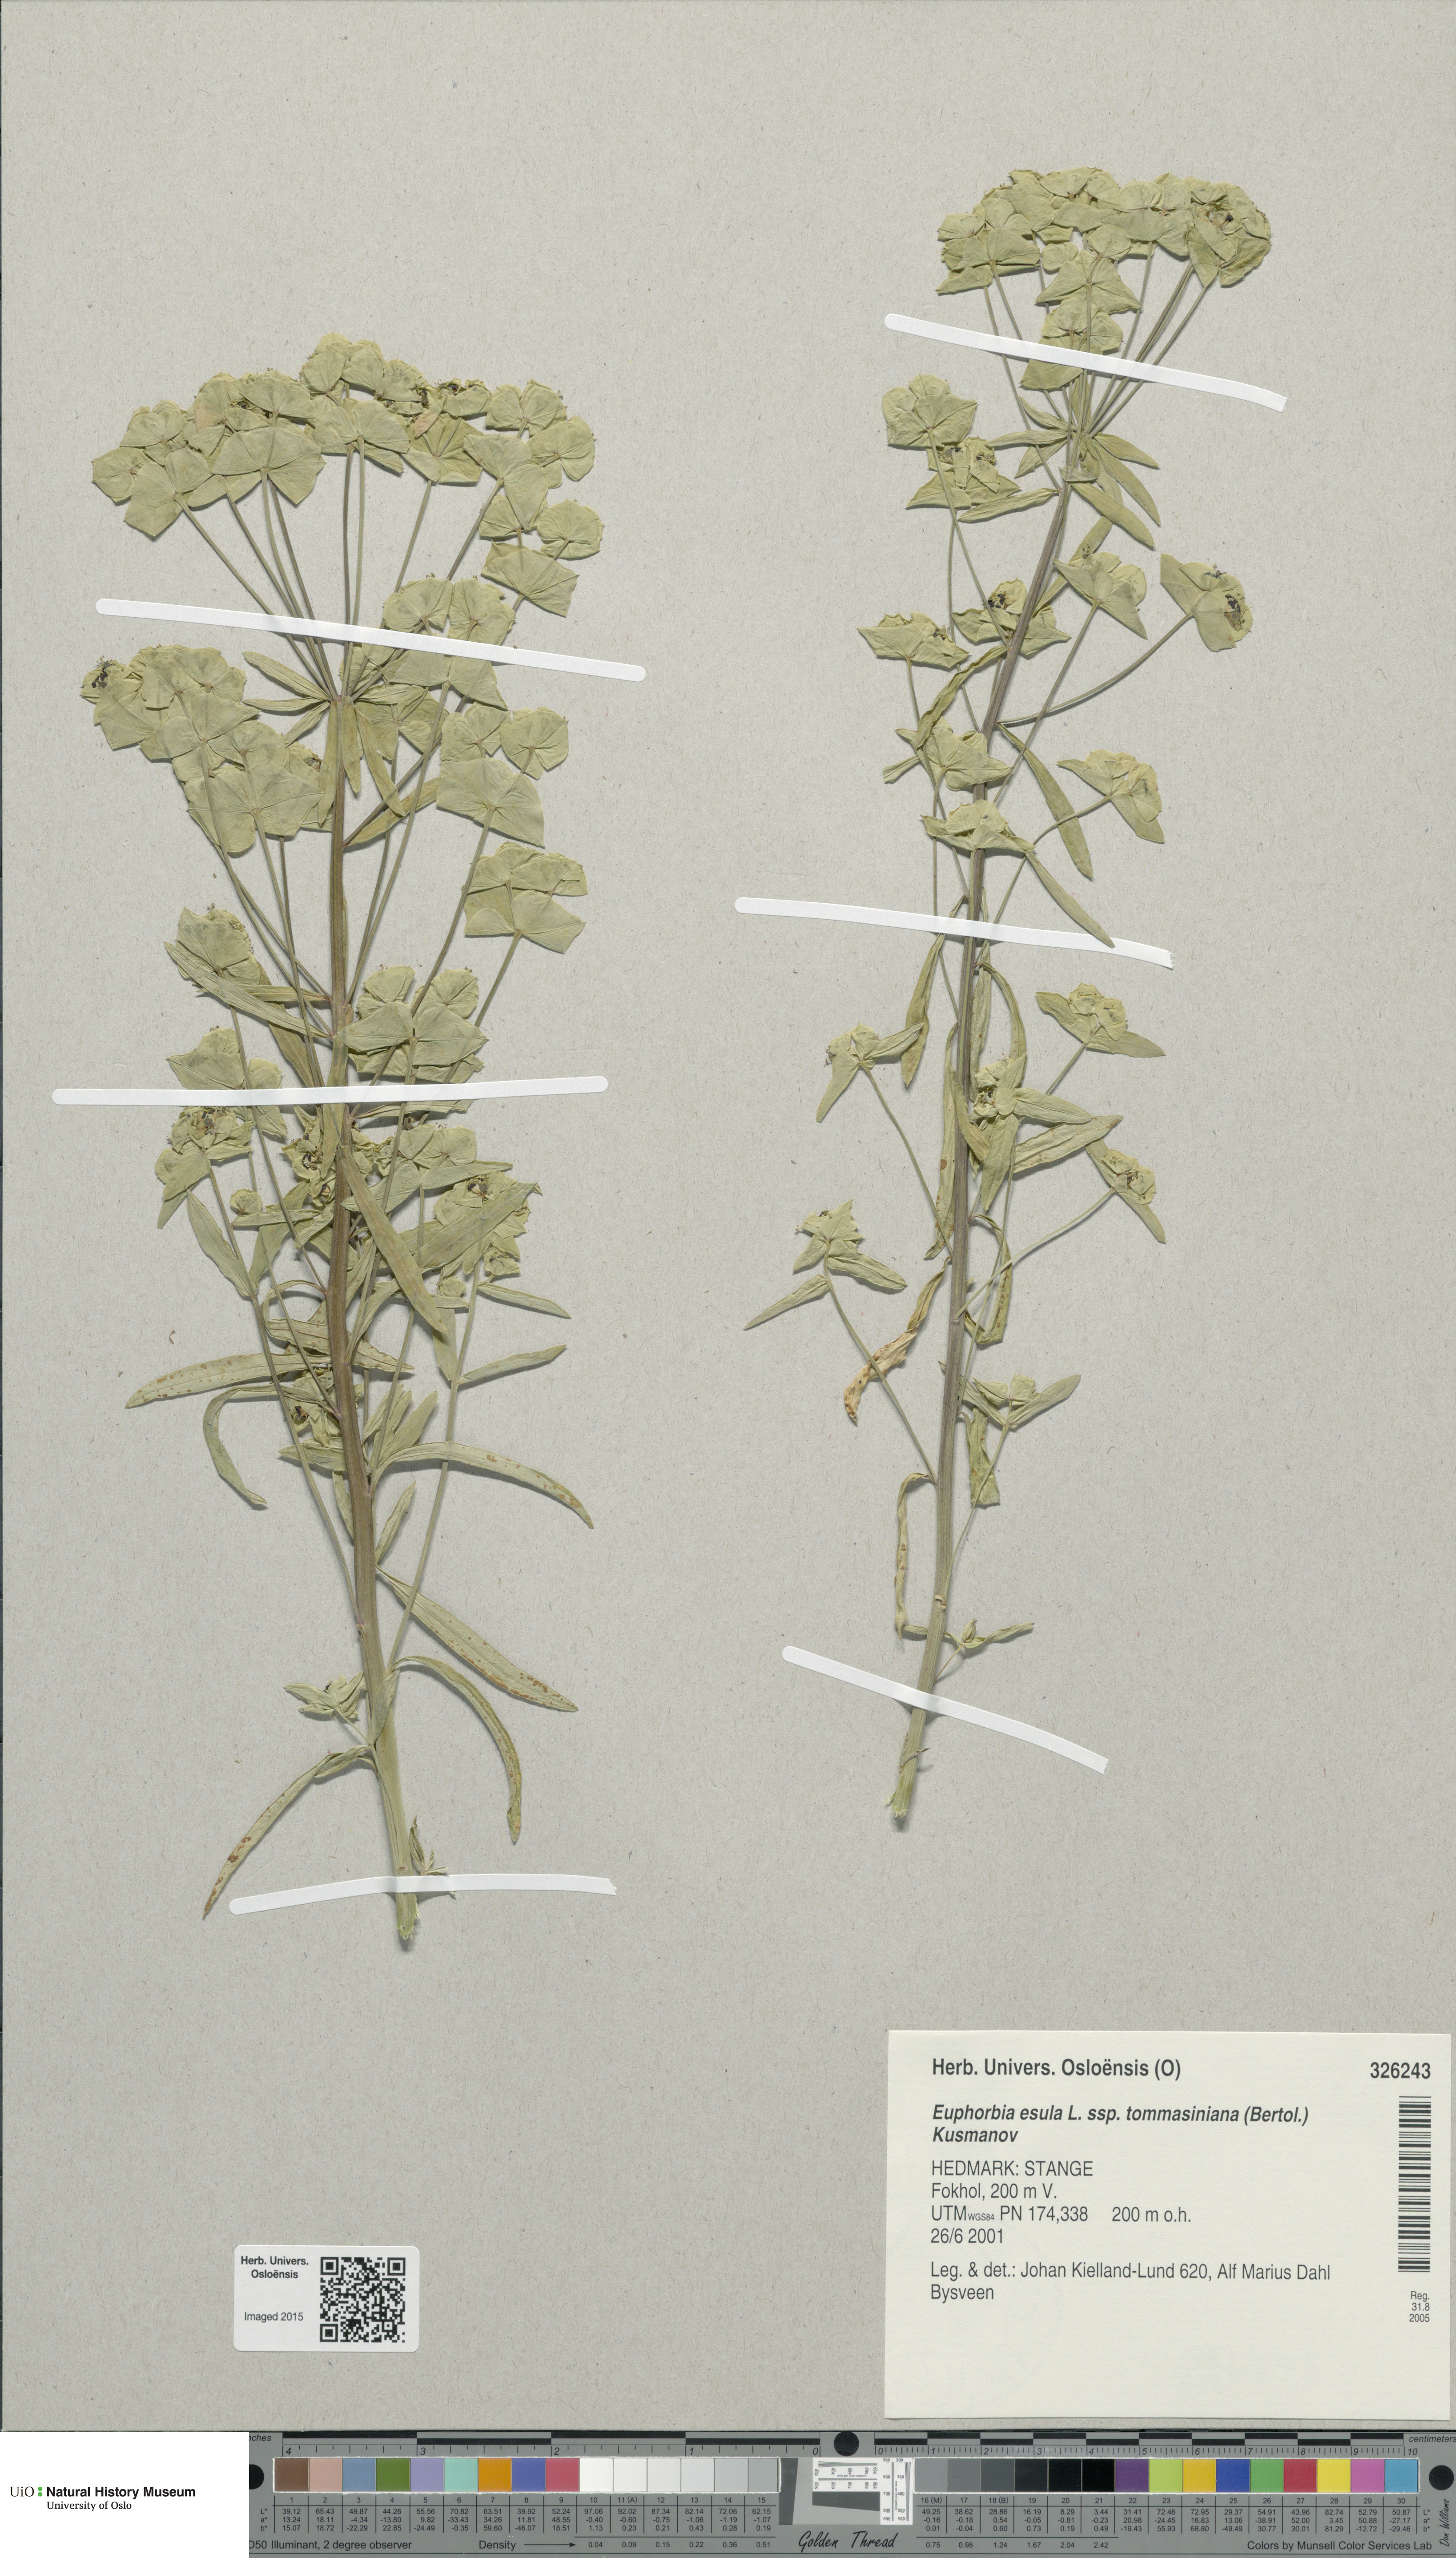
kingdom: Plantae
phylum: Tracheophyta
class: Magnoliopsida
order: Malpighiales
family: Euphorbiaceae
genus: Euphorbia
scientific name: Euphorbia tommasiniana
